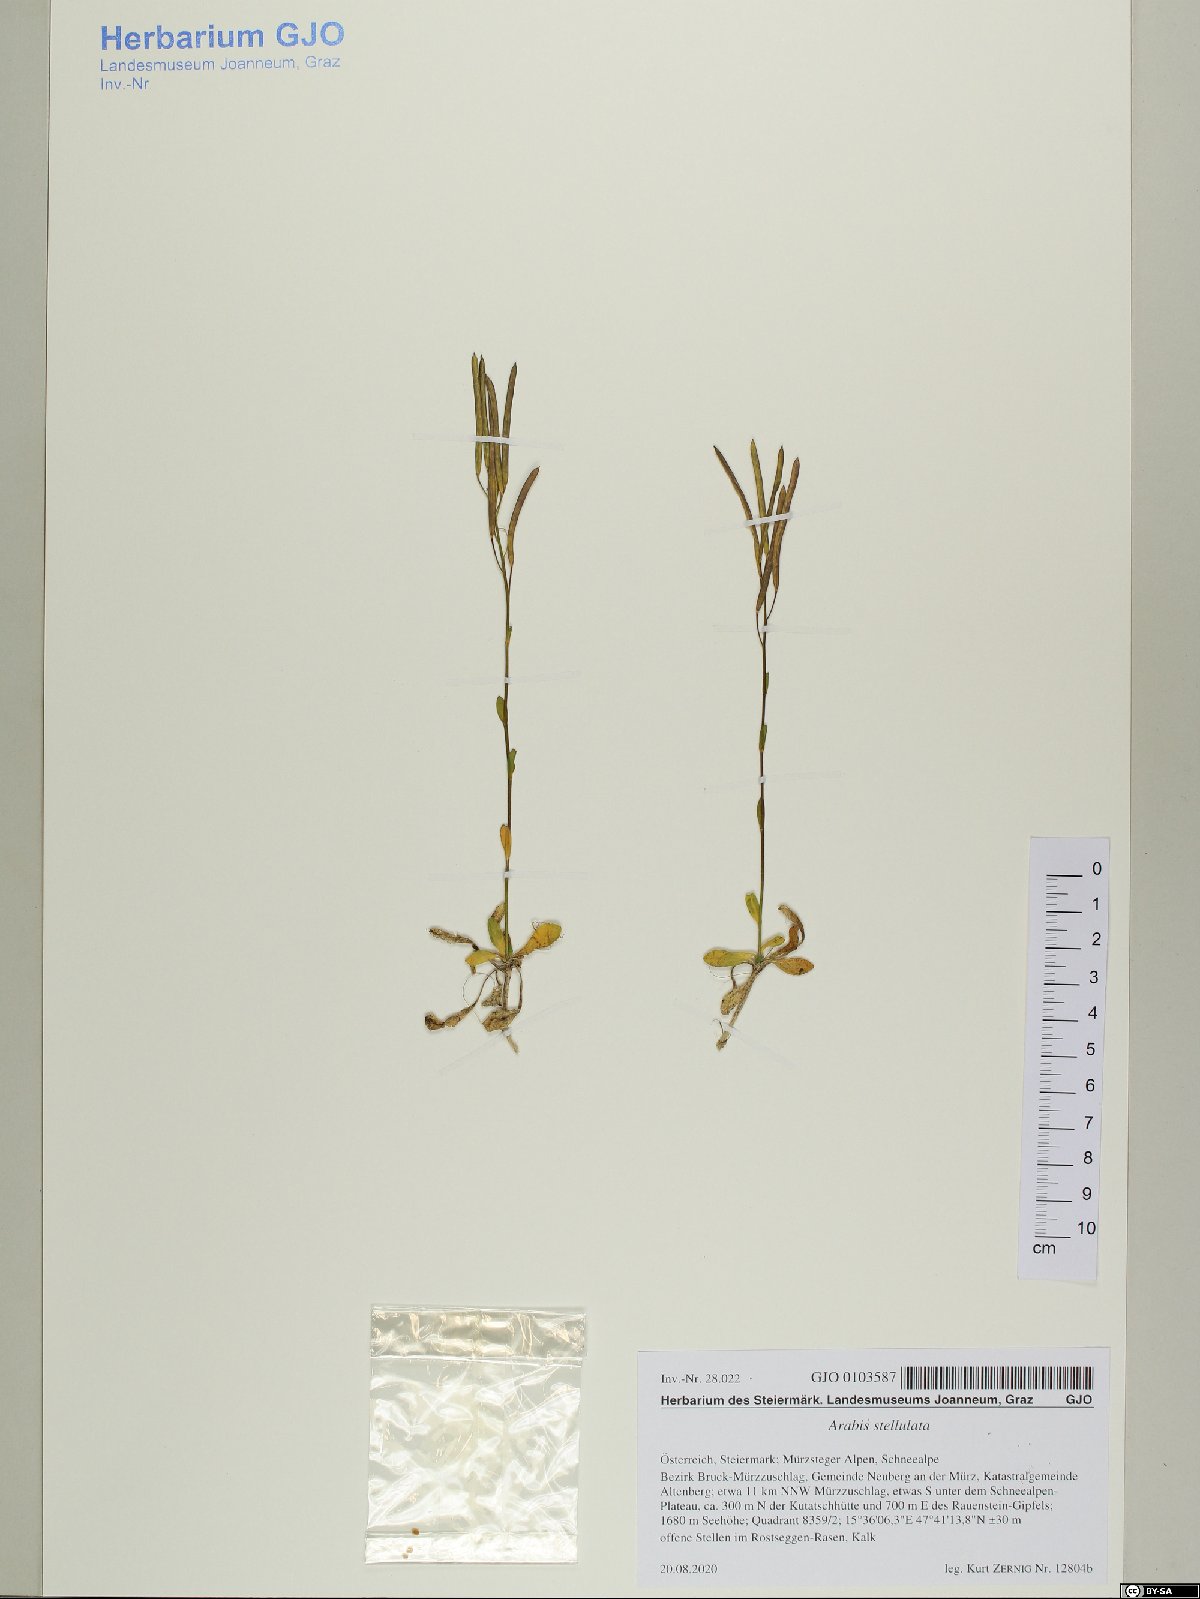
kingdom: Plantae
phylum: Tracheophyta
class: Magnoliopsida
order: Brassicales
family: Brassicaceae
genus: Arabis
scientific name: Arabis stellulata
